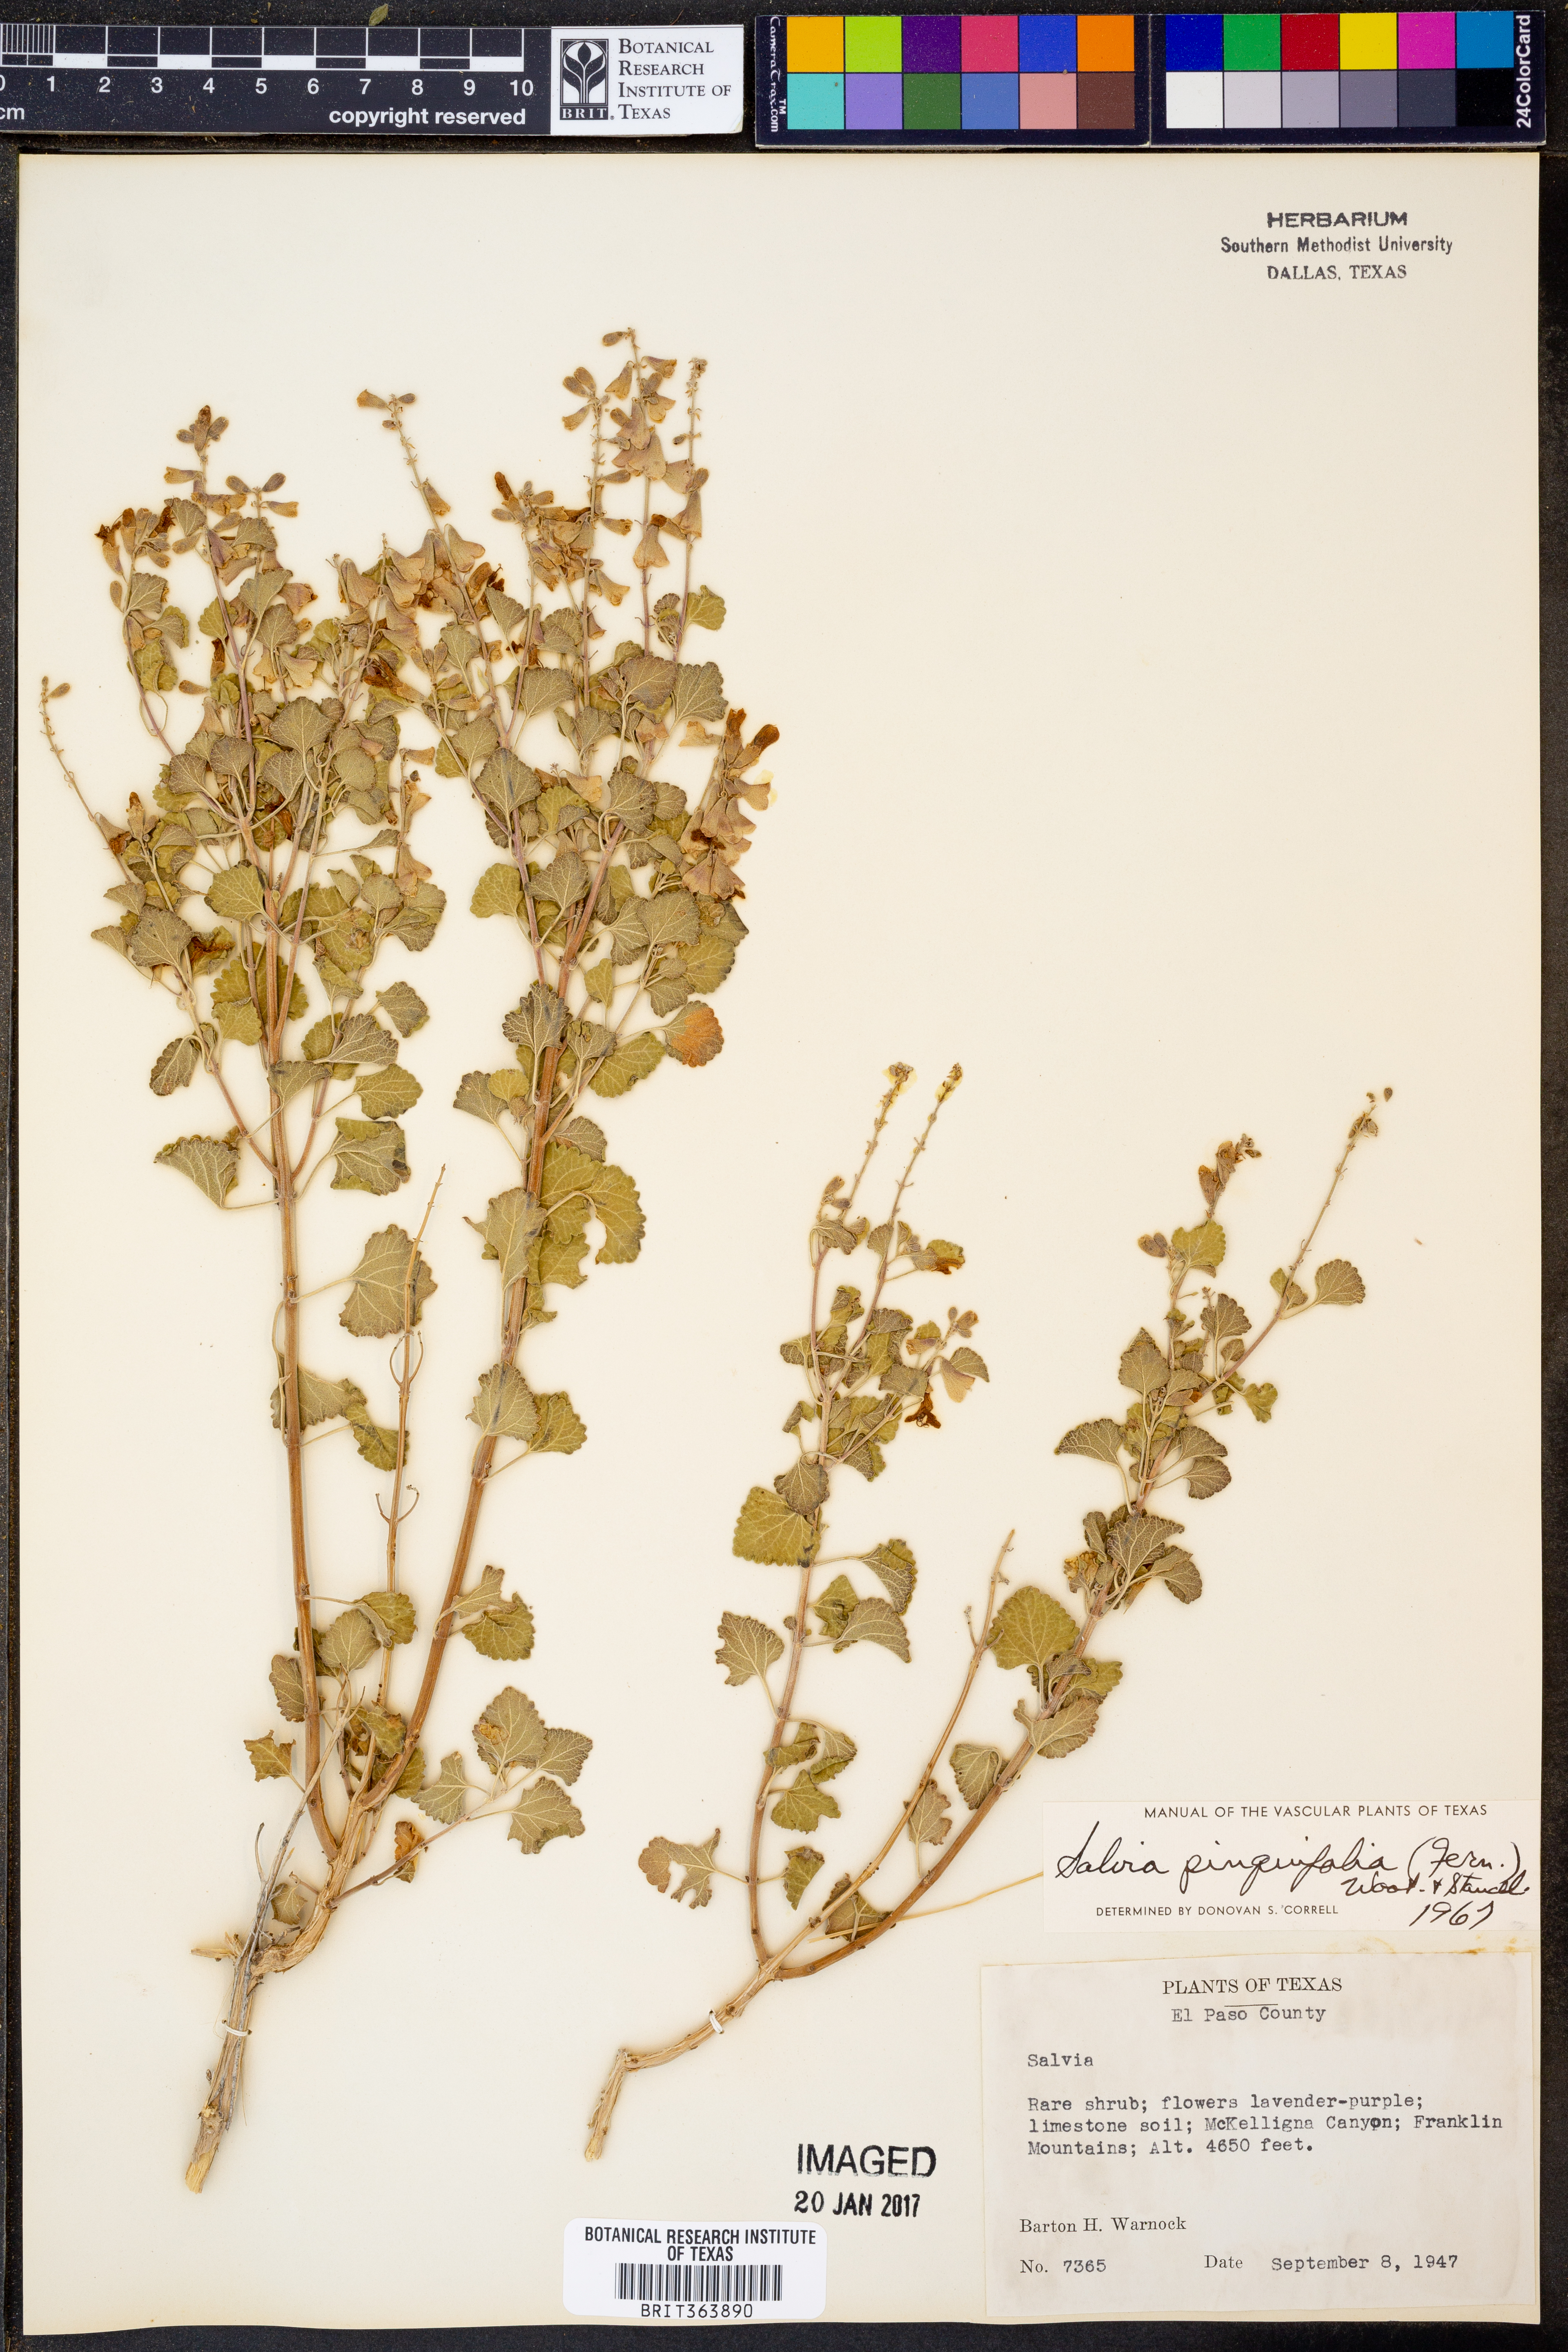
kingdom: Plantae
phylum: Tracheophyta
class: Magnoliopsida
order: Lamiales
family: Lamiaceae
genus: Salvia
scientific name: Salvia pinguifolia
